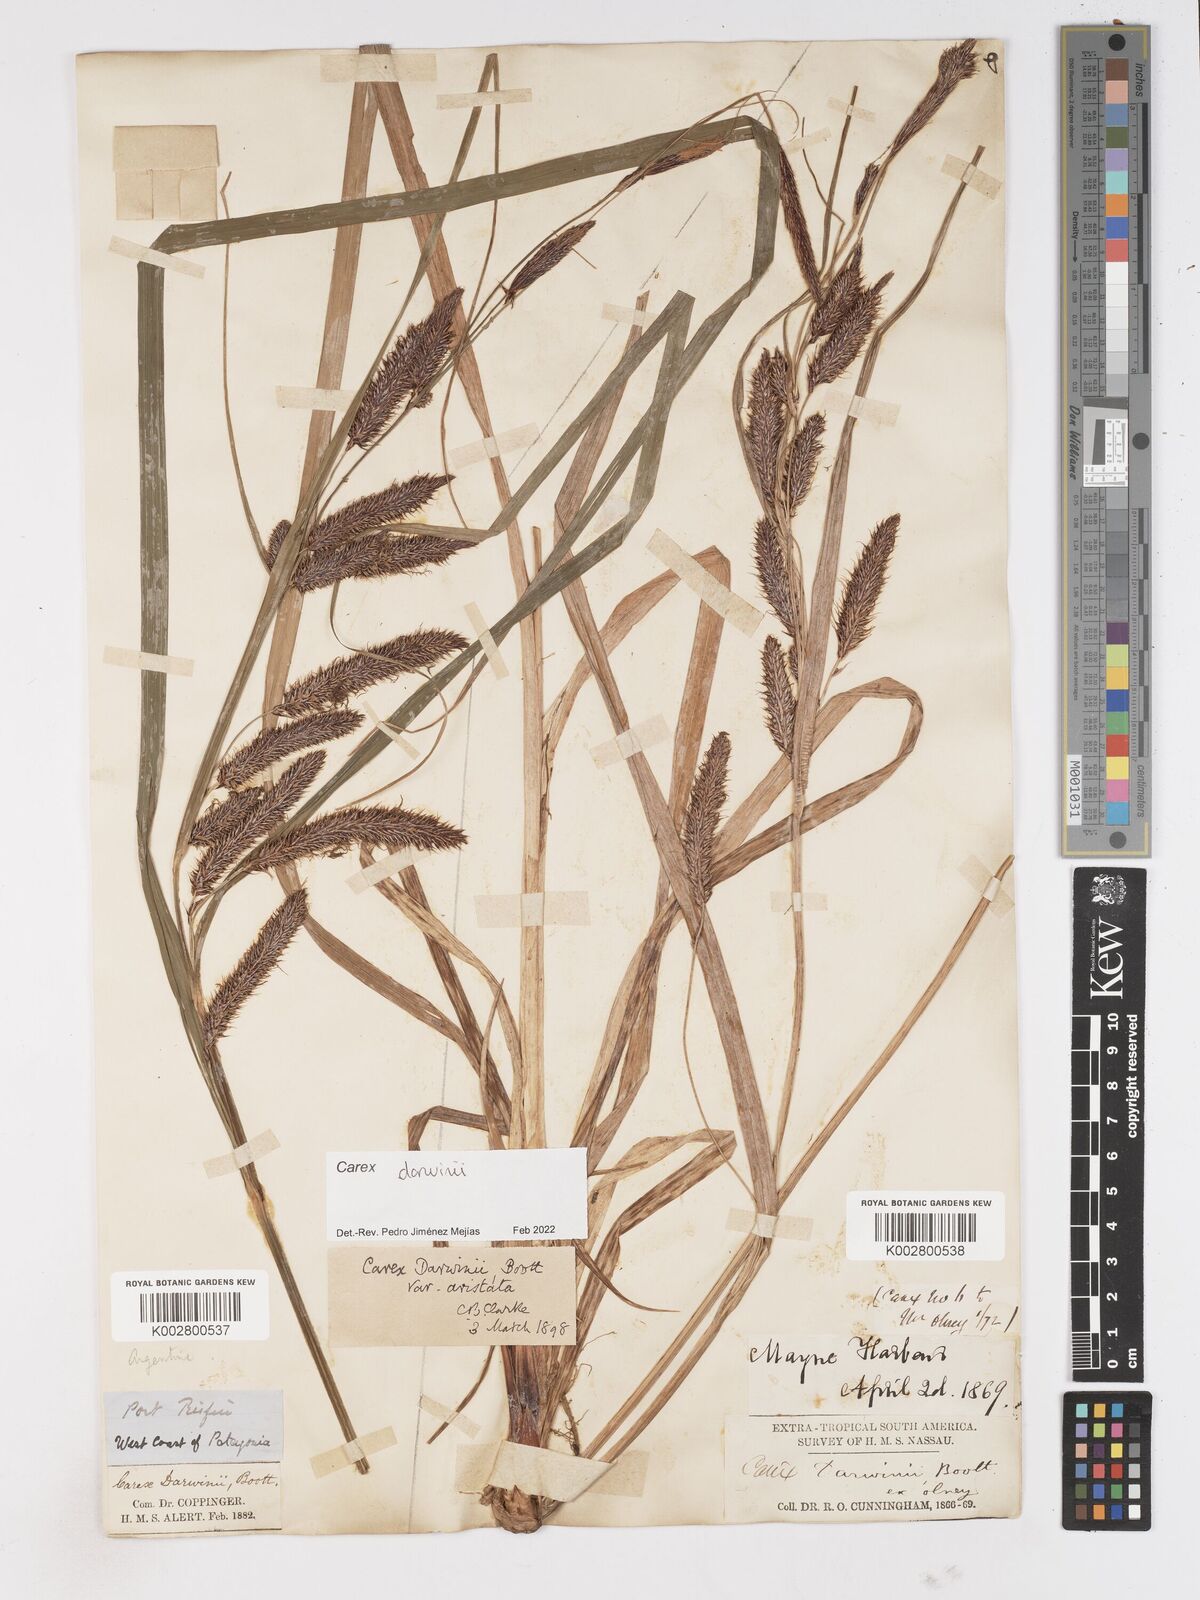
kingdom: Plantae
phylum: Tracheophyta
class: Liliopsida
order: Poales
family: Cyperaceae
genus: Carex
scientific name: Carex darwinii
